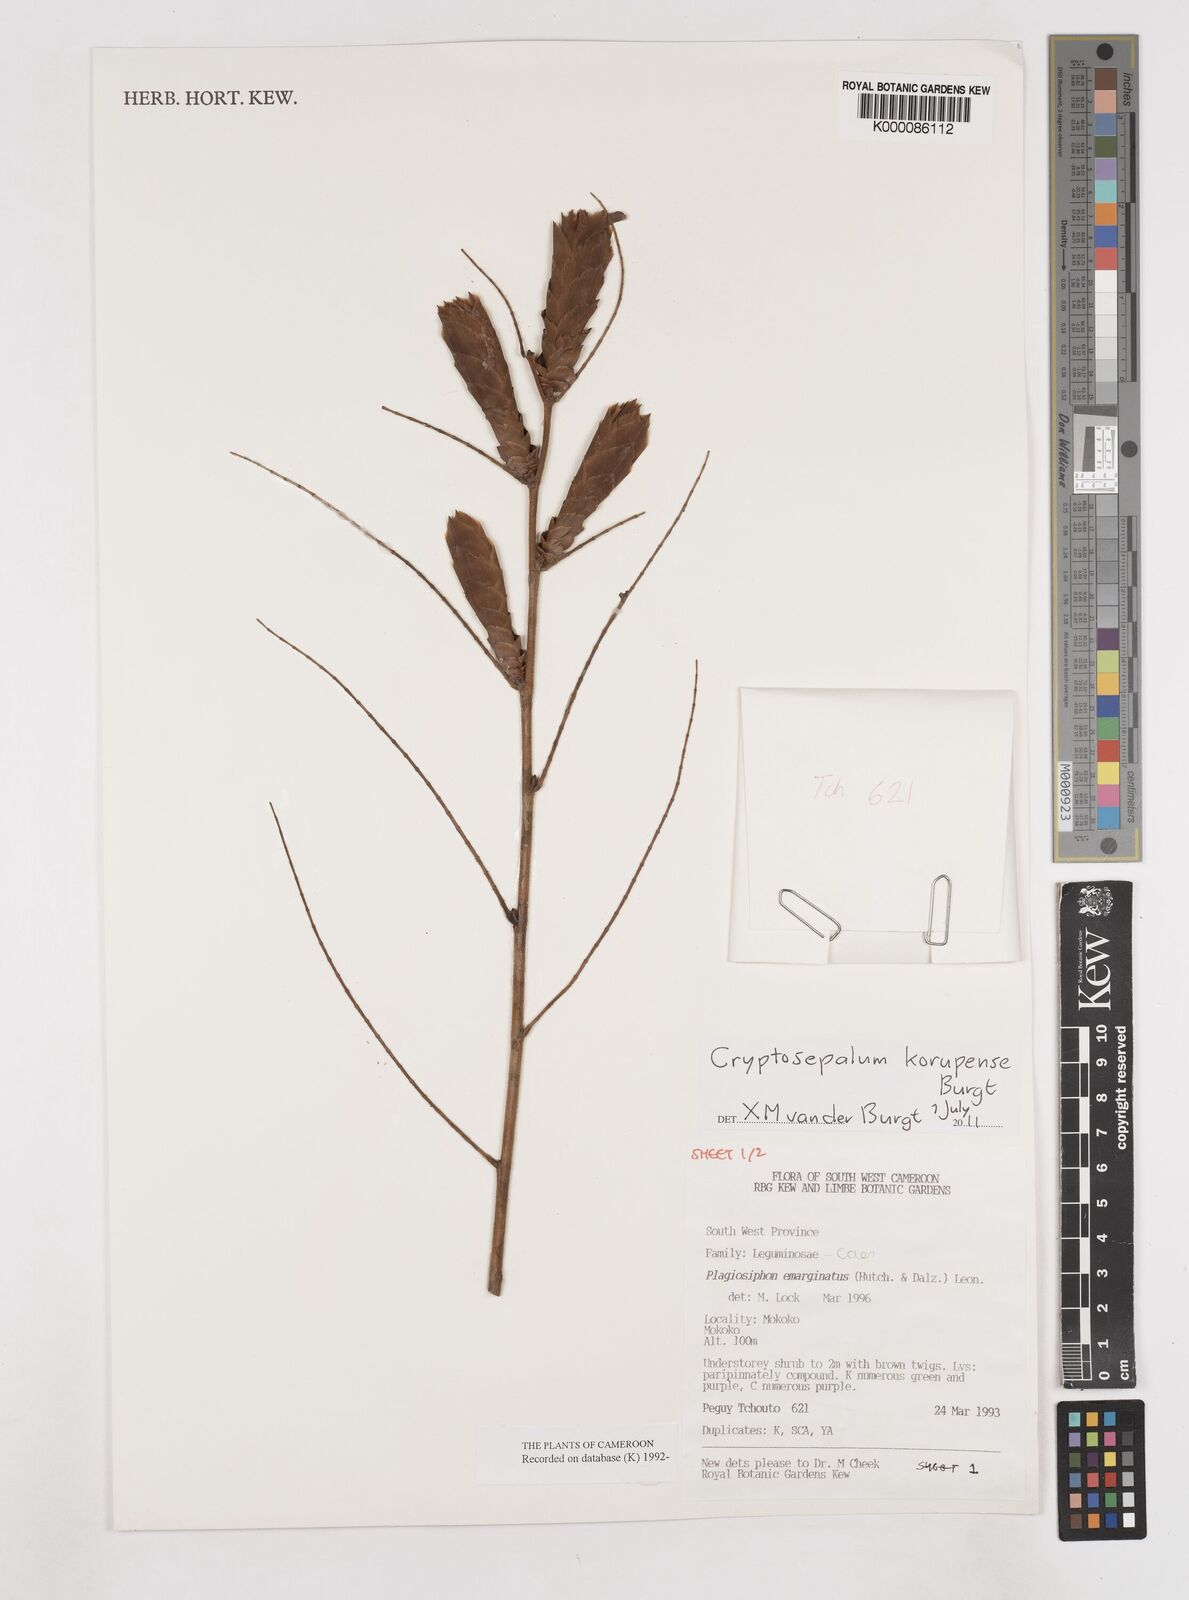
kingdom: Plantae
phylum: Tracheophyta
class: Magnoliopsida
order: Fabales
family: Fabaceae
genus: Cryptosepalum
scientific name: Cryptosepalum korupense
